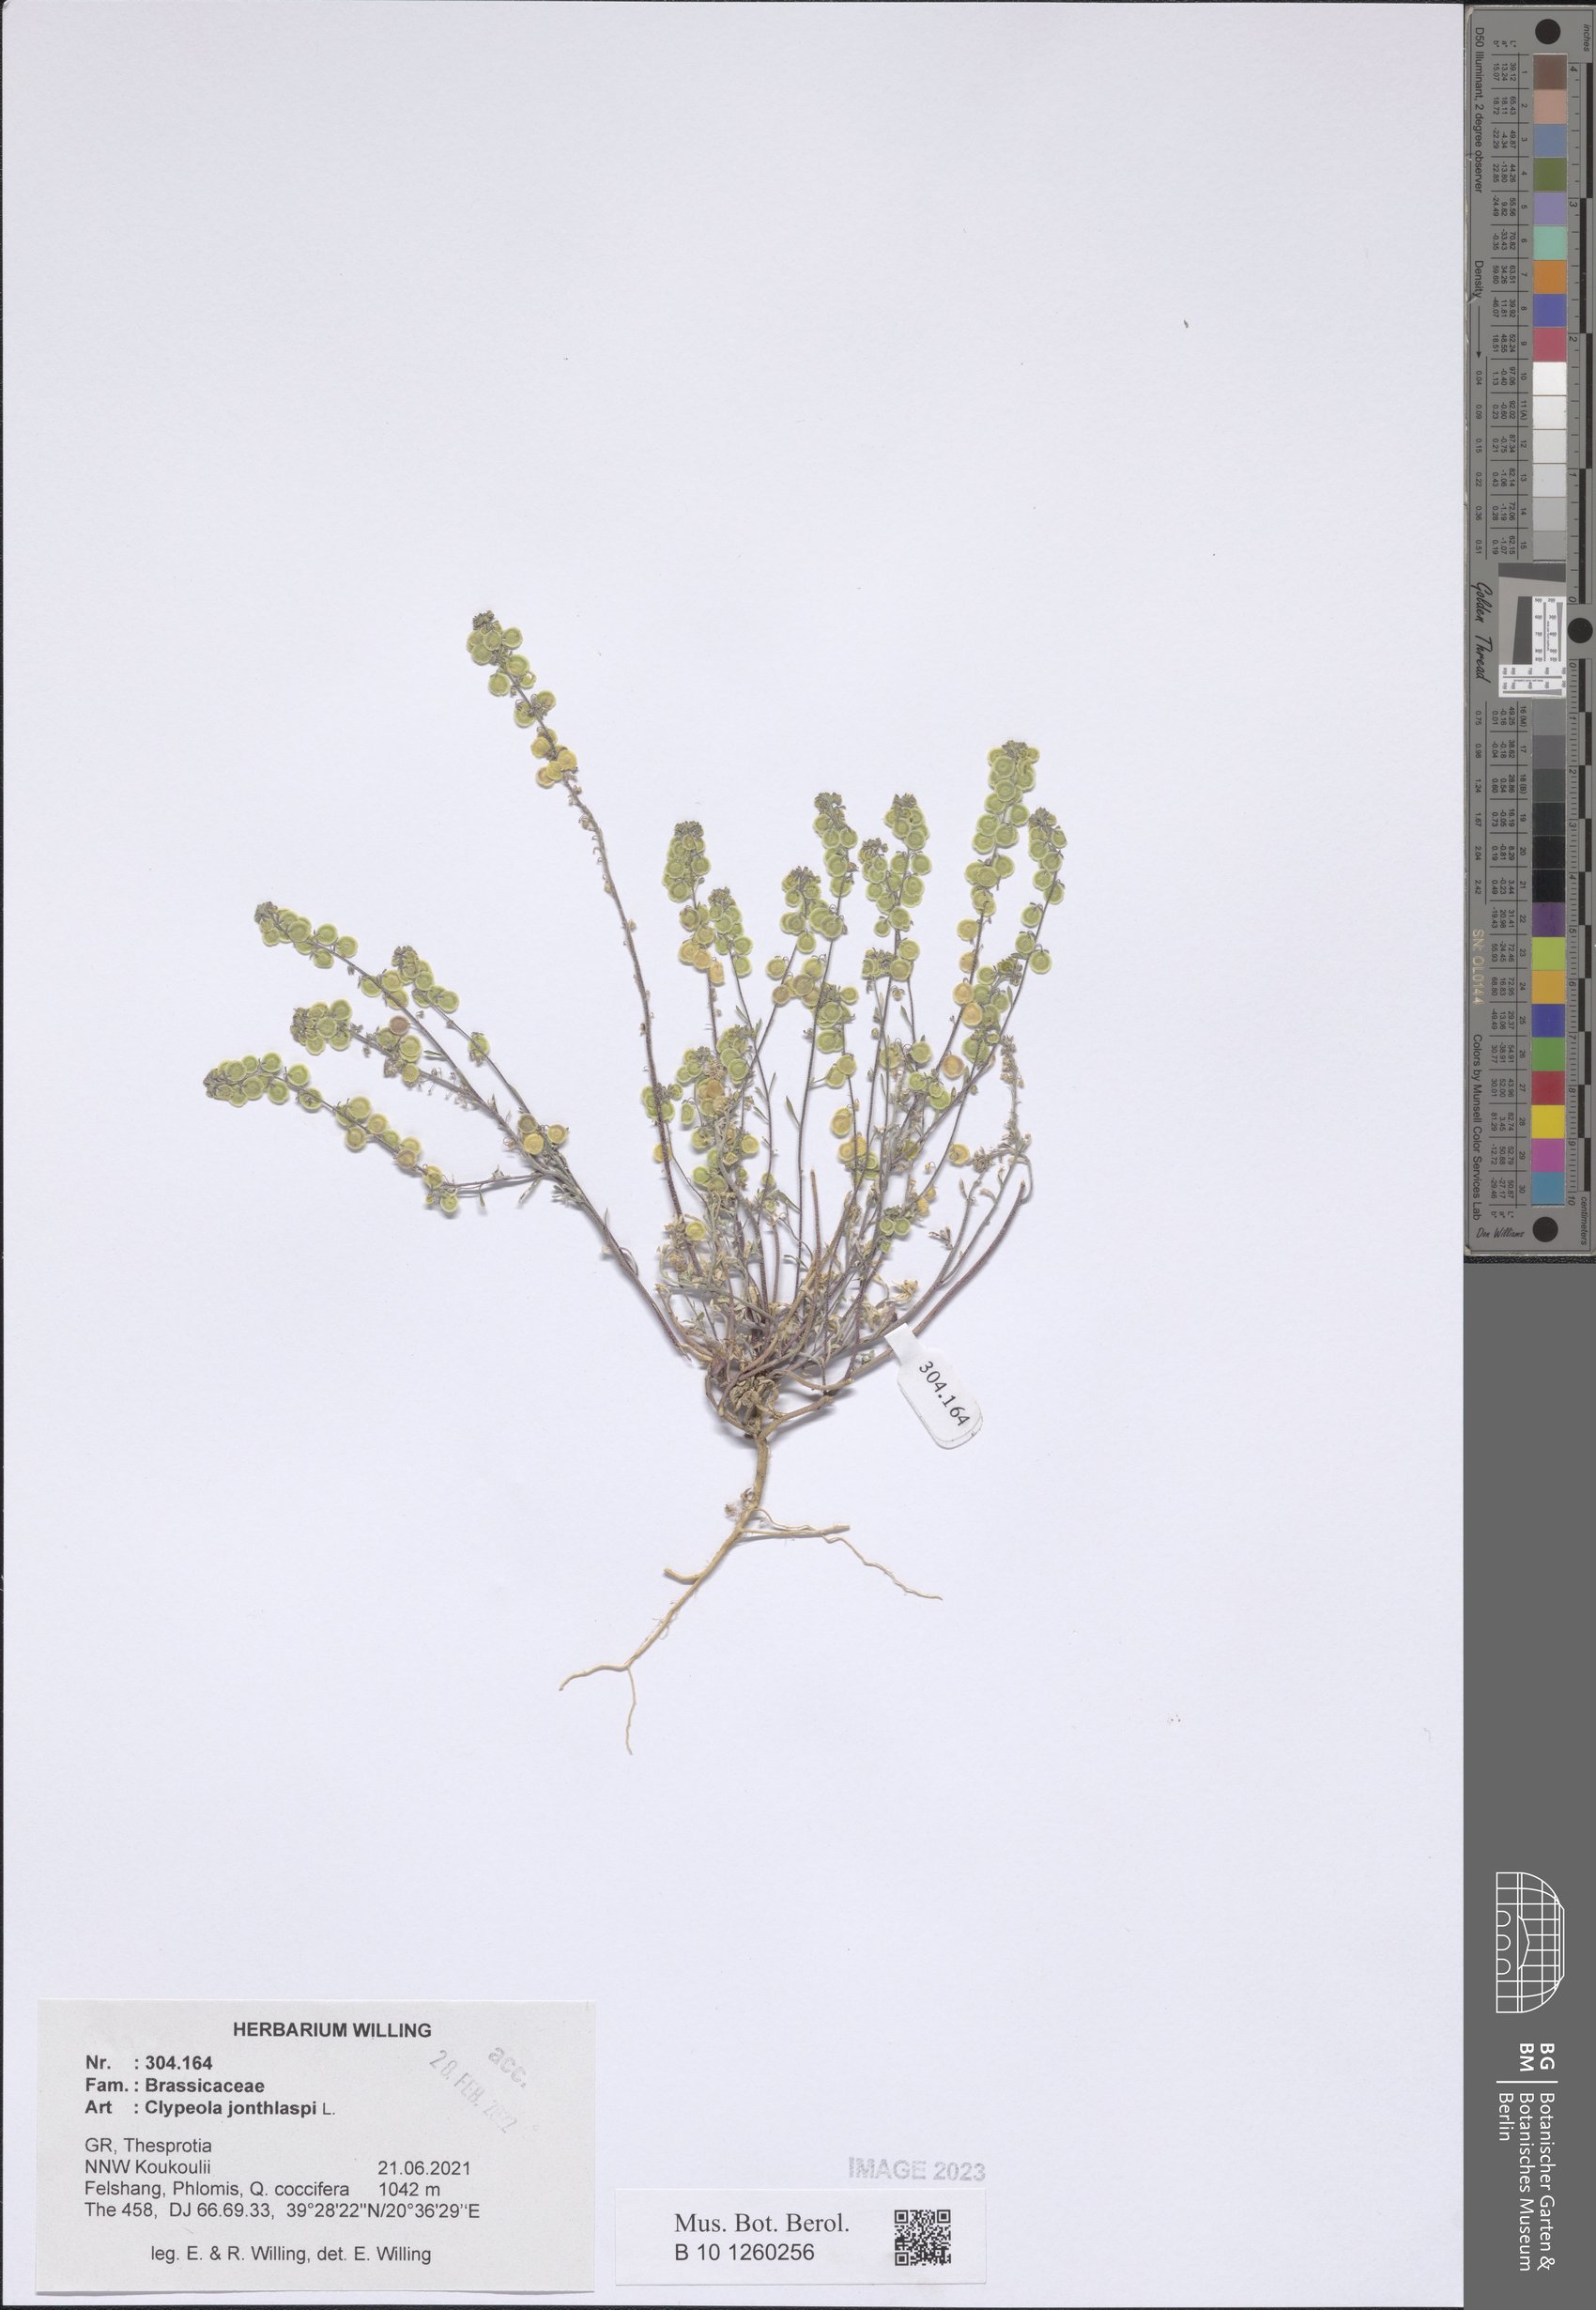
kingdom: Plantae
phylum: Tracheophyta
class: Magnoliopsida
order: Brassicales
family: Brassicaceae
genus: Clypeola
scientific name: Clypeola jonthlaspi
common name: Disk cress
